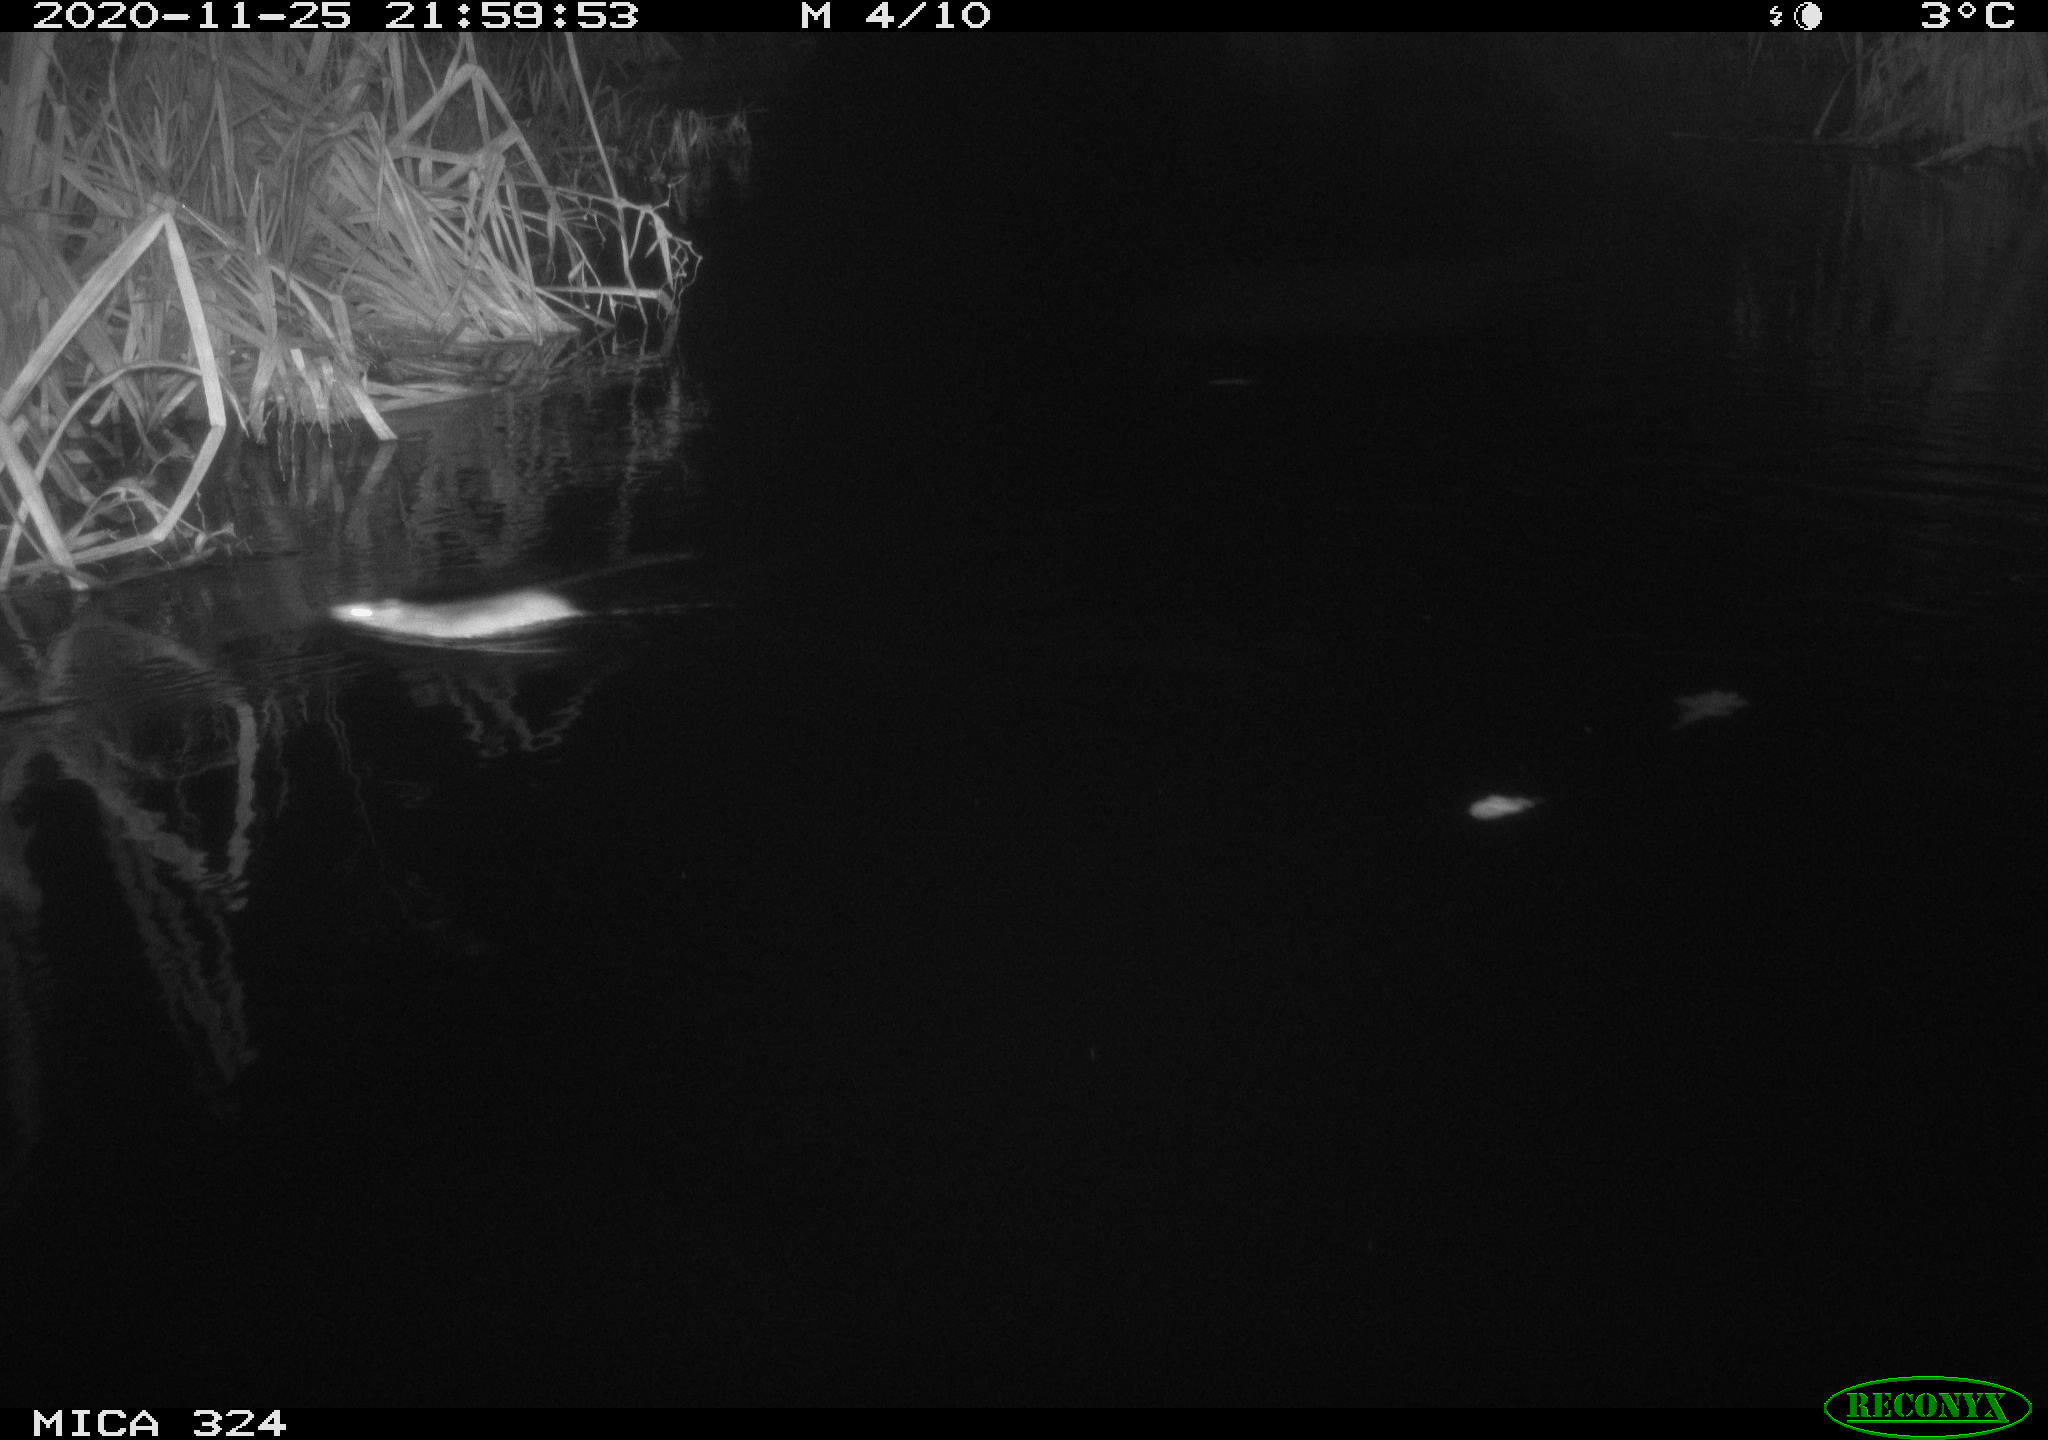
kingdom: Animalia
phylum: Chordata
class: Aves
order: Gruiformes
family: Rallidae
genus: Gallinula
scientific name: Gallinula chloropus
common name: Common moorhen
